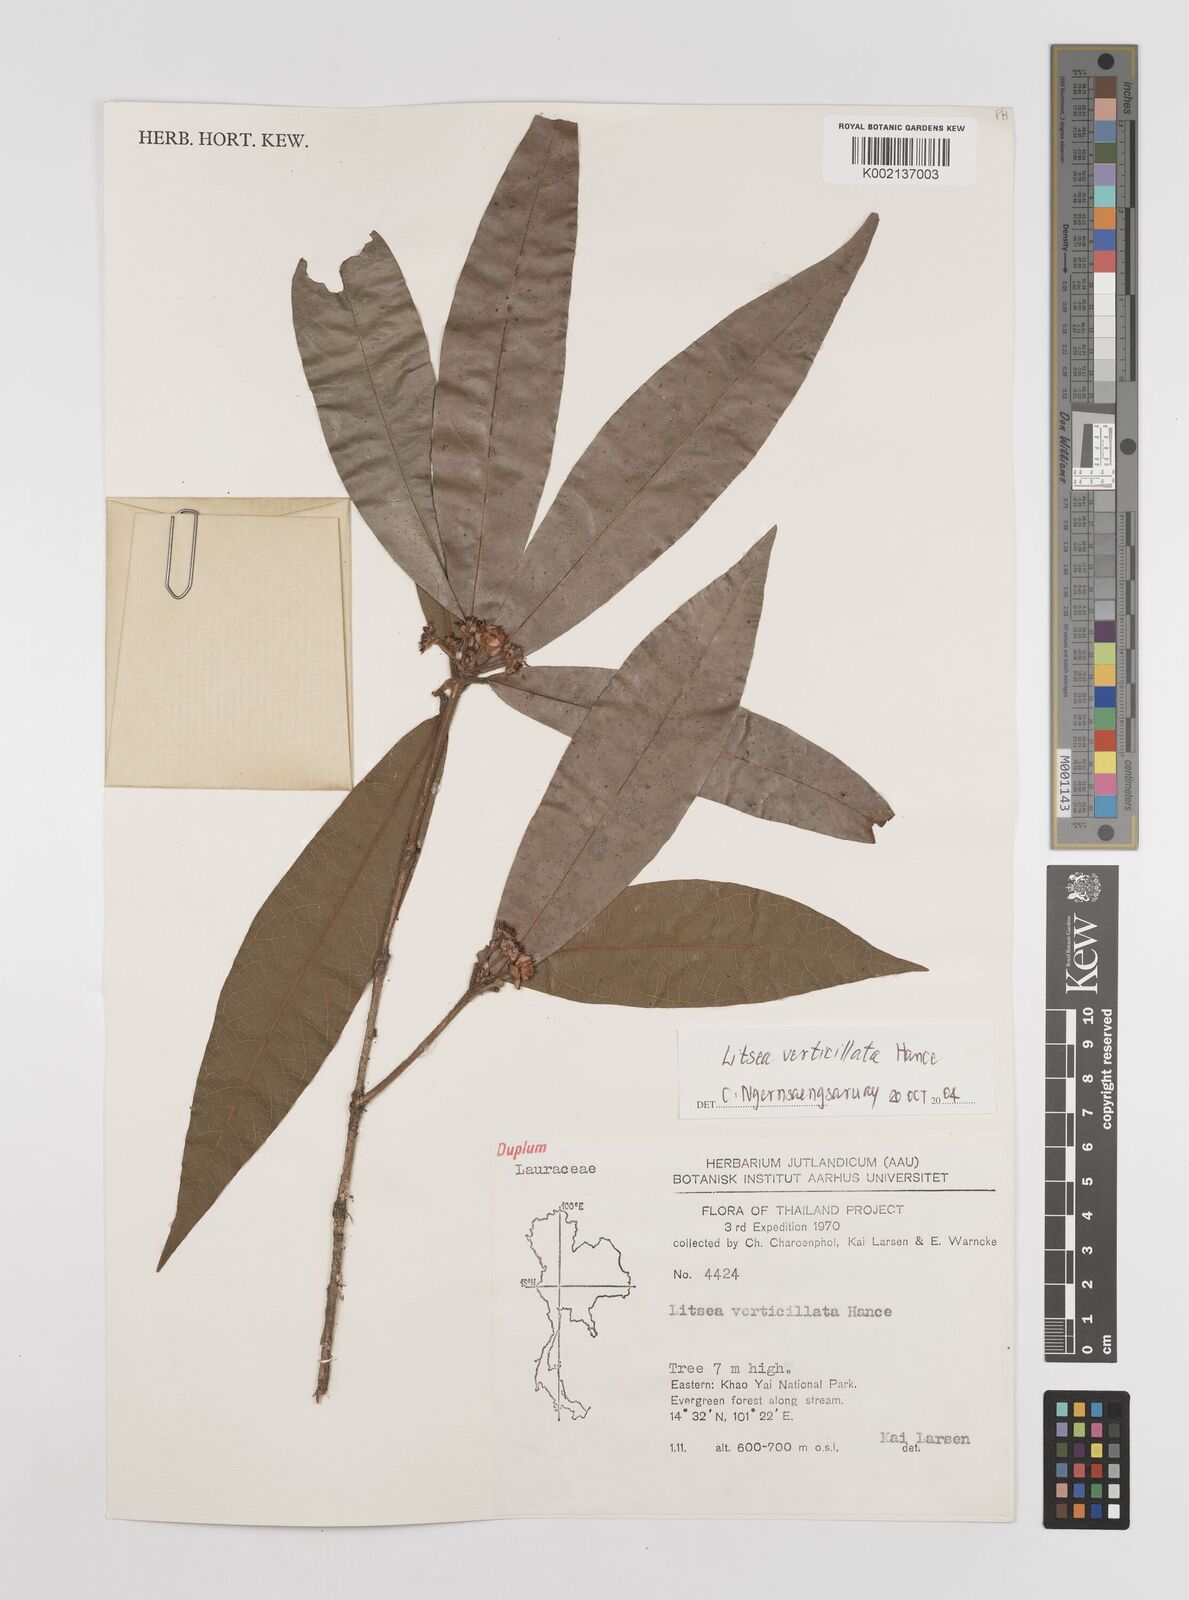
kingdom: Plantae
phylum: Tracheophyta
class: Magnoliopsida
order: Laurales
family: Lauraceae
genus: Litsea
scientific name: Litsea verticillata
